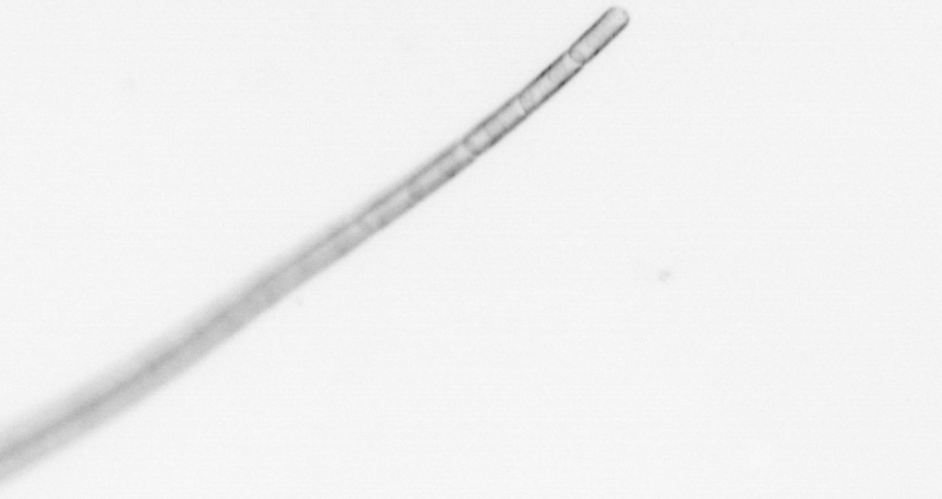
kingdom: Chromista
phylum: Ochrophyta
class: Bacillariophyceae
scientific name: Bacillariophyceae
